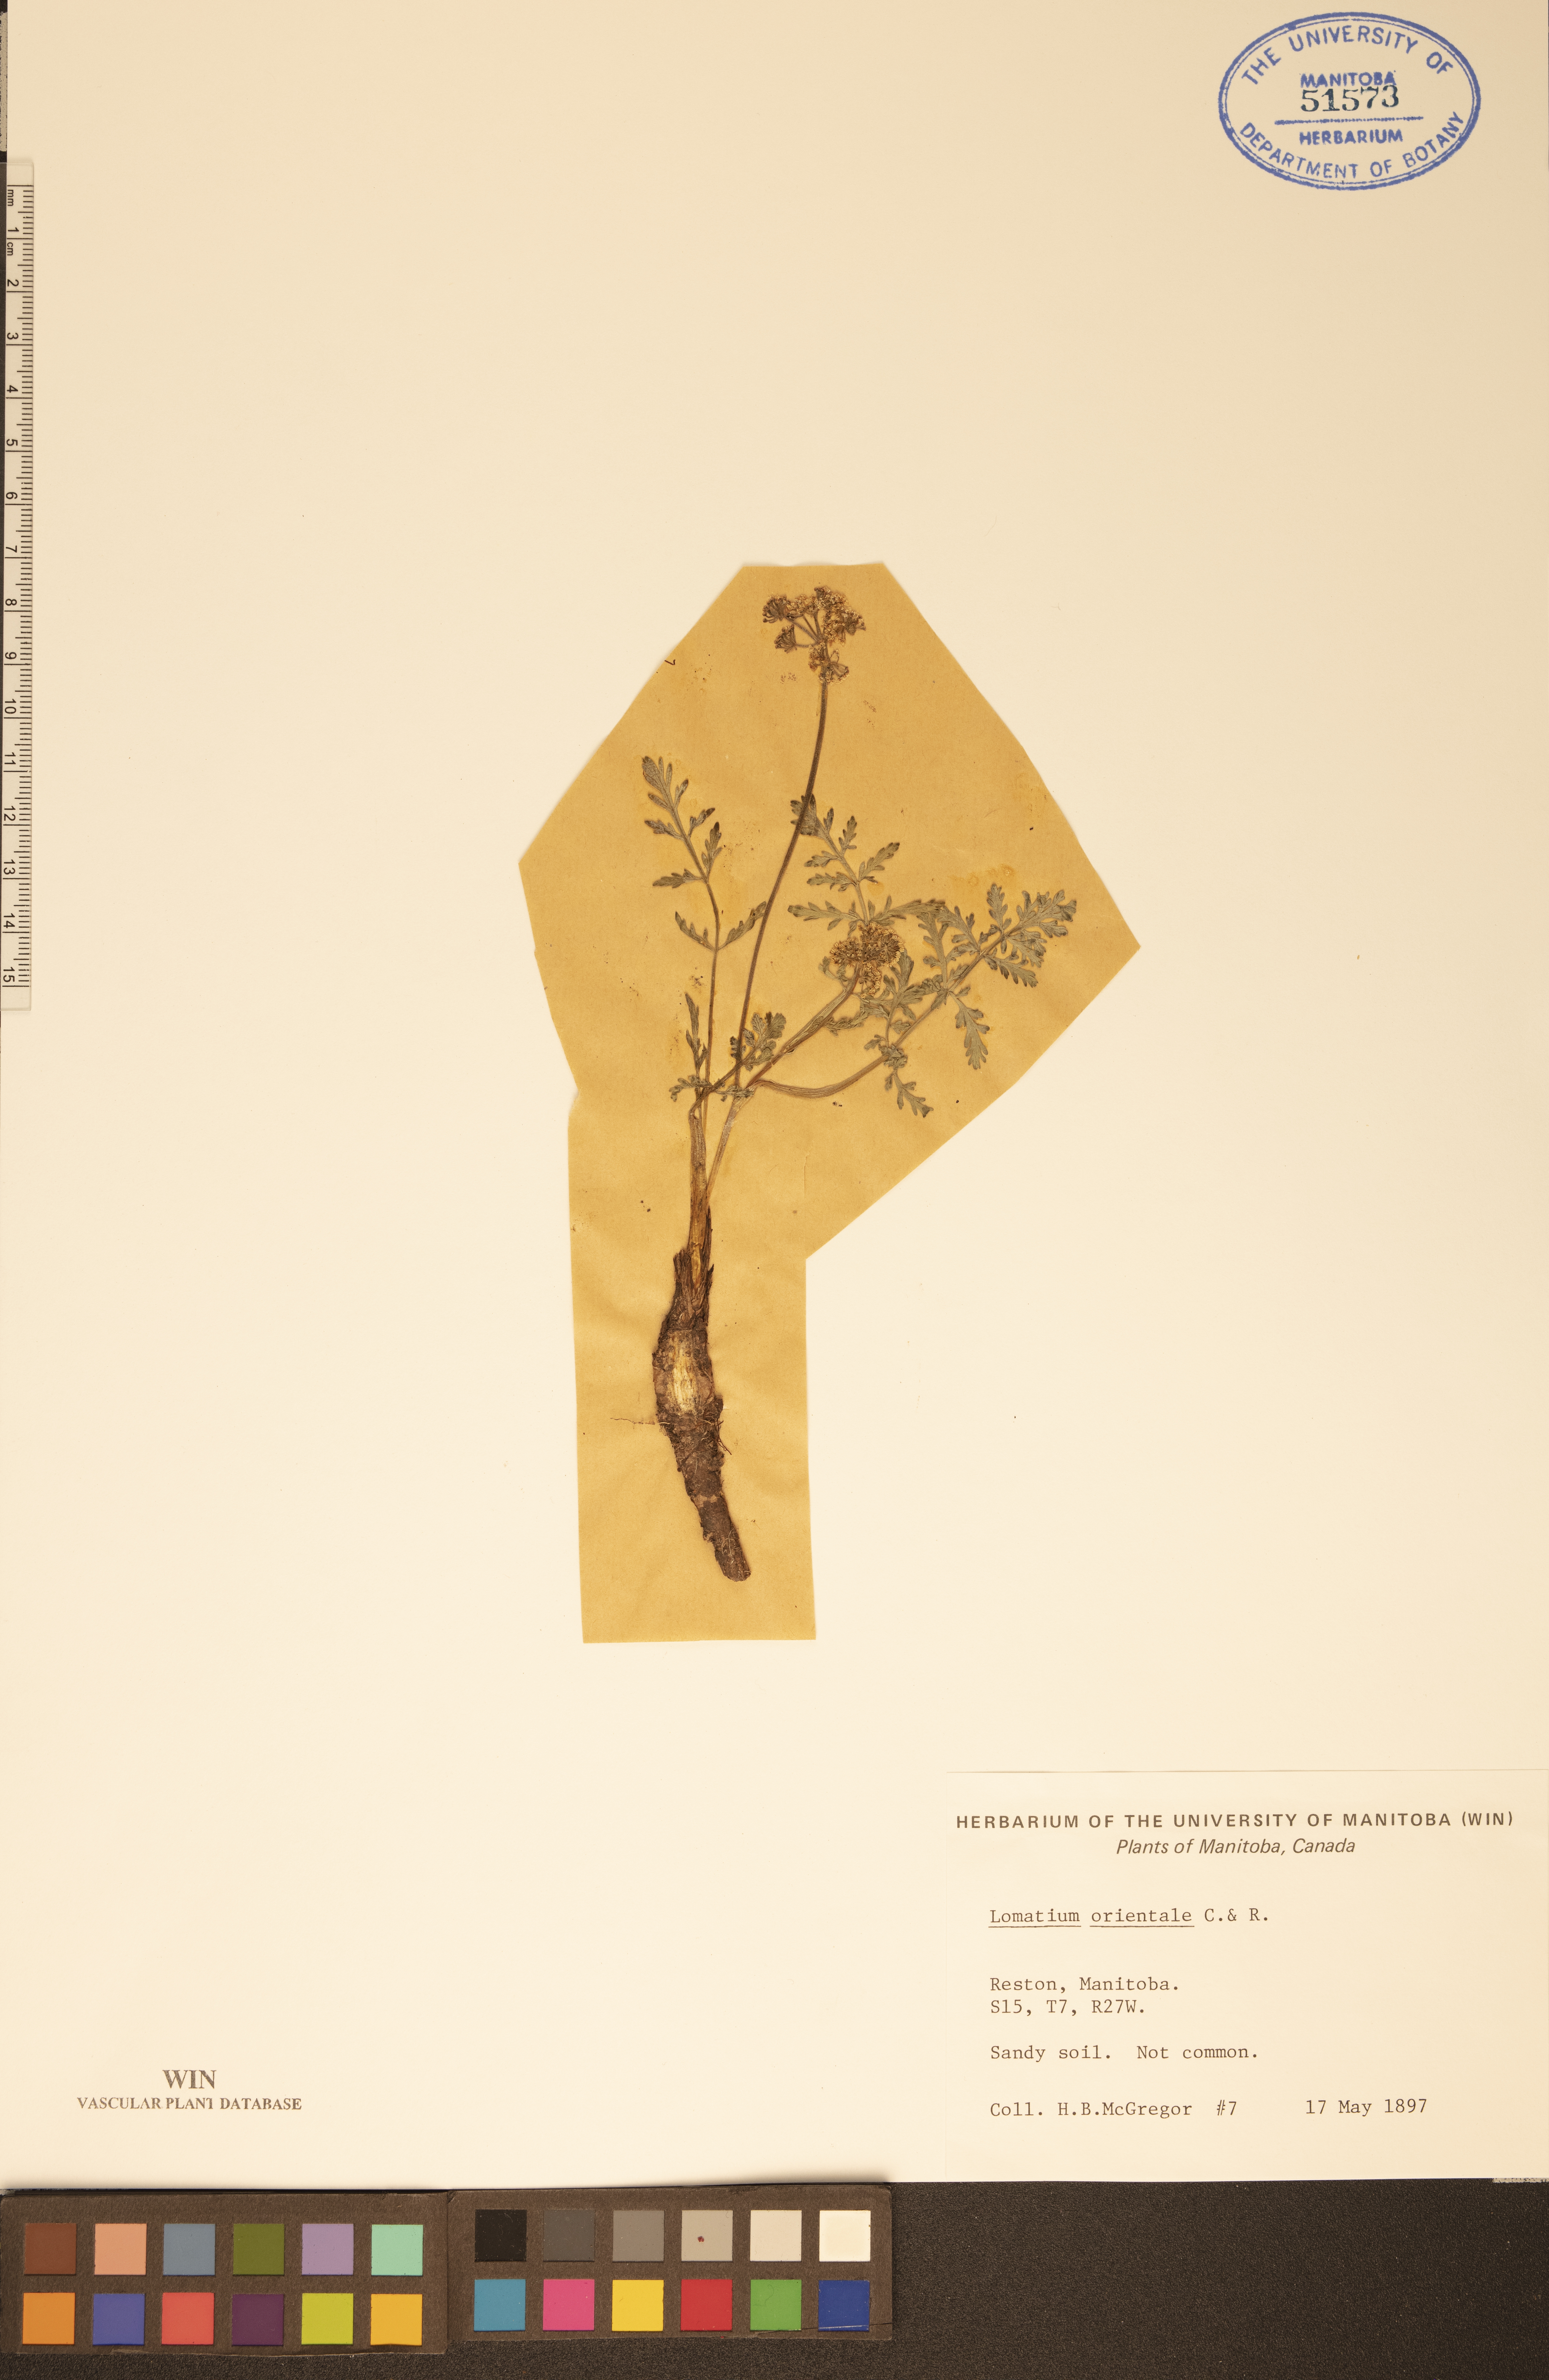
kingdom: Plantae
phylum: Tracheophyta
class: Magnoliopsida
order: Apiales
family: Apiaceae
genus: Lomatium
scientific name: Lomatium orientale
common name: Eastern cous
